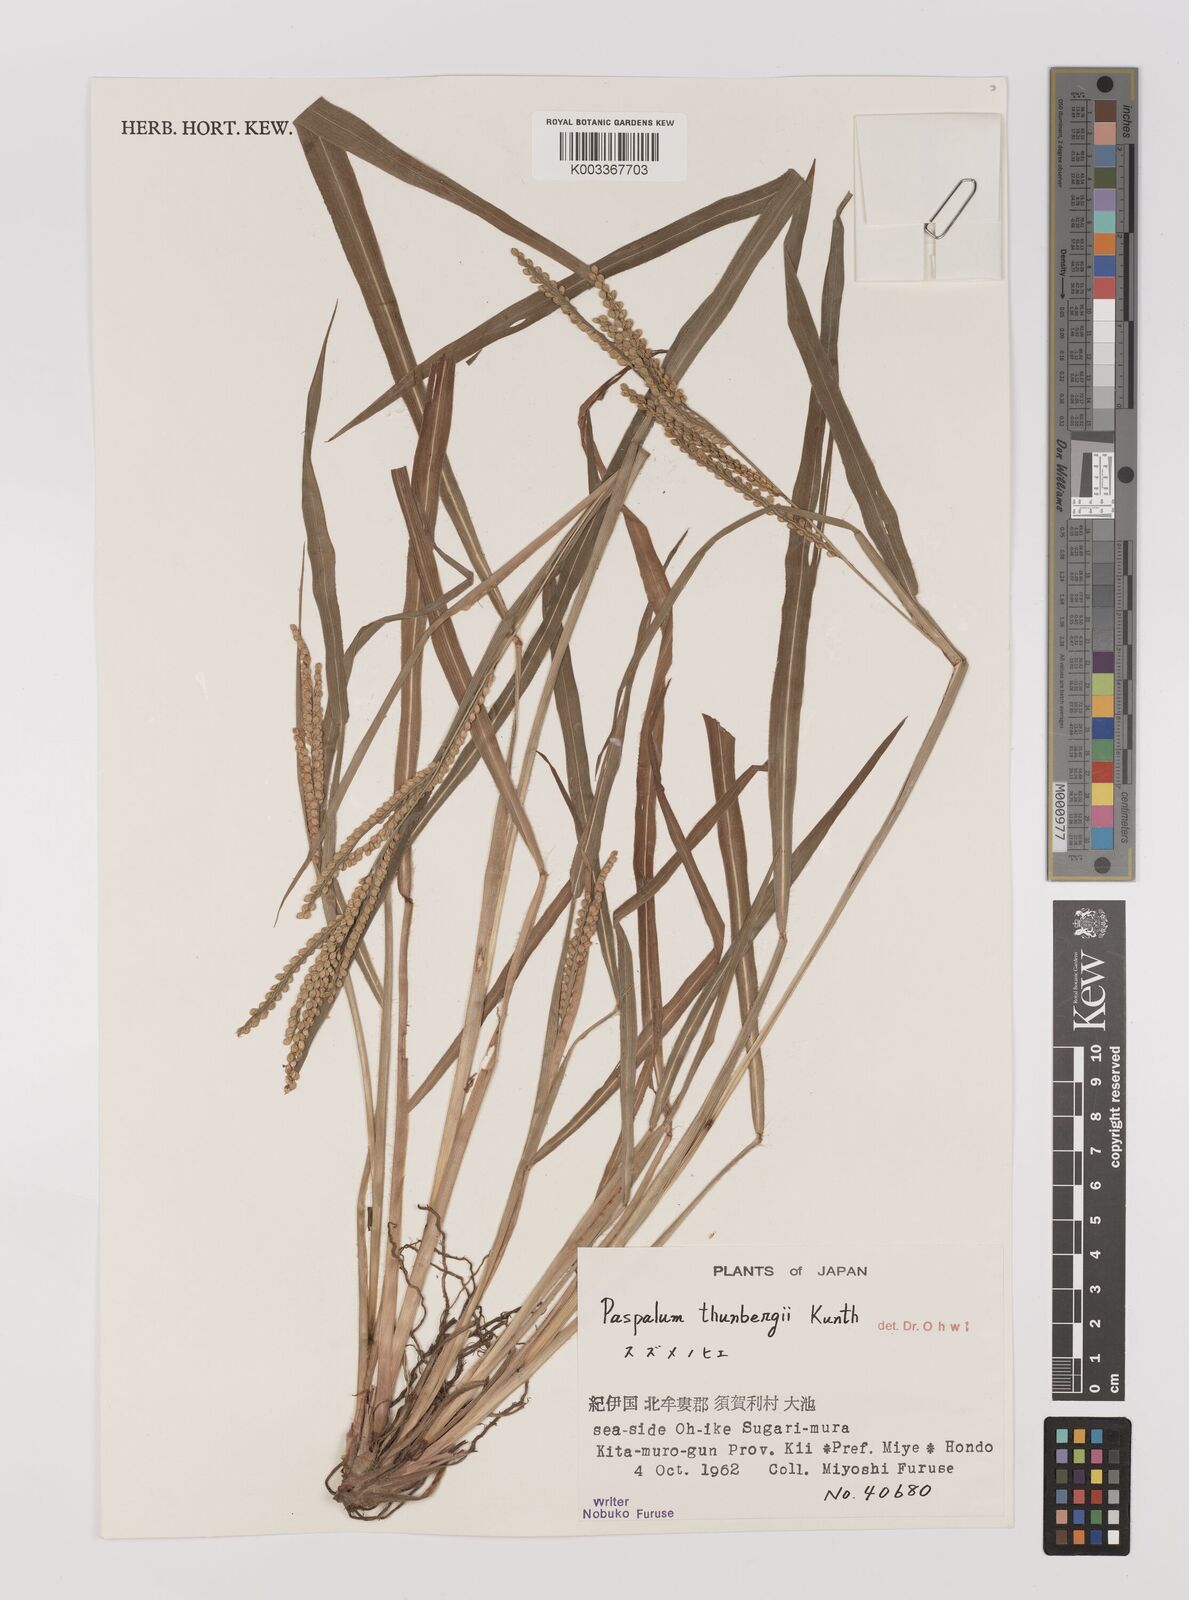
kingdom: Plantae
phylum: Tracheophyta
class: Liliopsida
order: Poales
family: Poaceae
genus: Panicum
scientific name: Panicum
